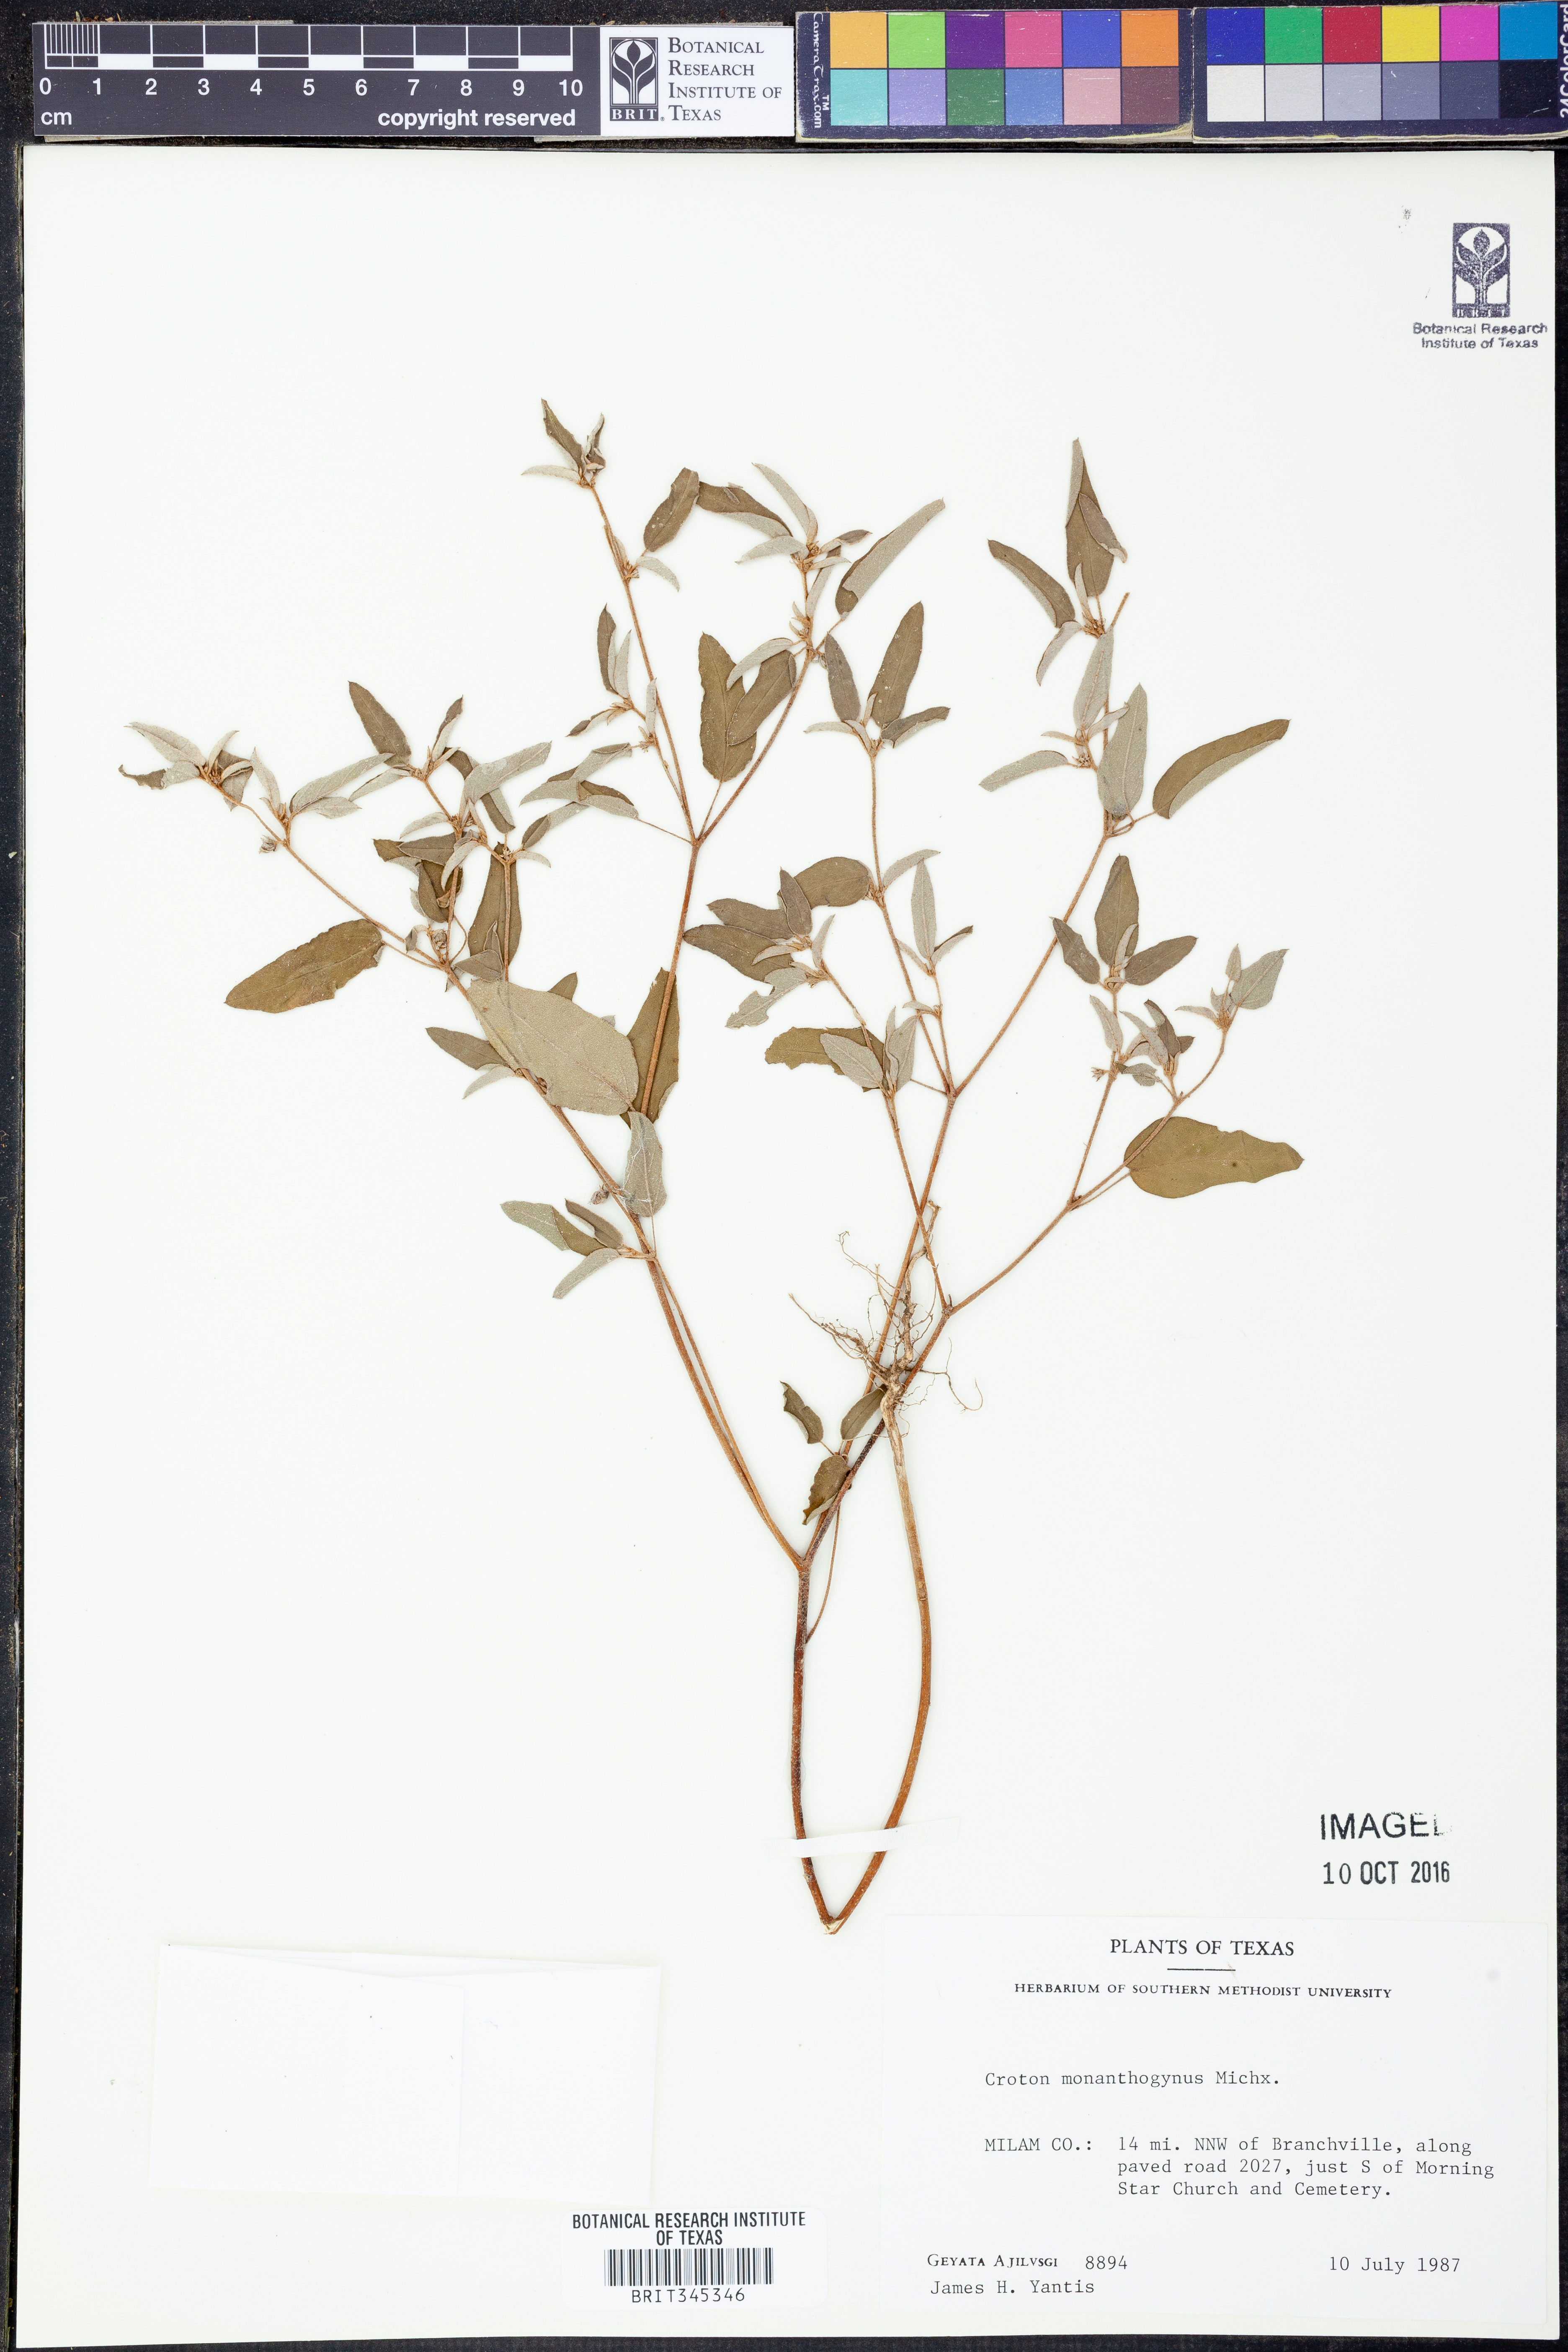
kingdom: Plantae
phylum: Tracheophyta
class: Magnoliopsida
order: Malpighiales
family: Euphorbiaceae
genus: Croton
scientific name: Croton monanthogynus
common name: One-seed croton
